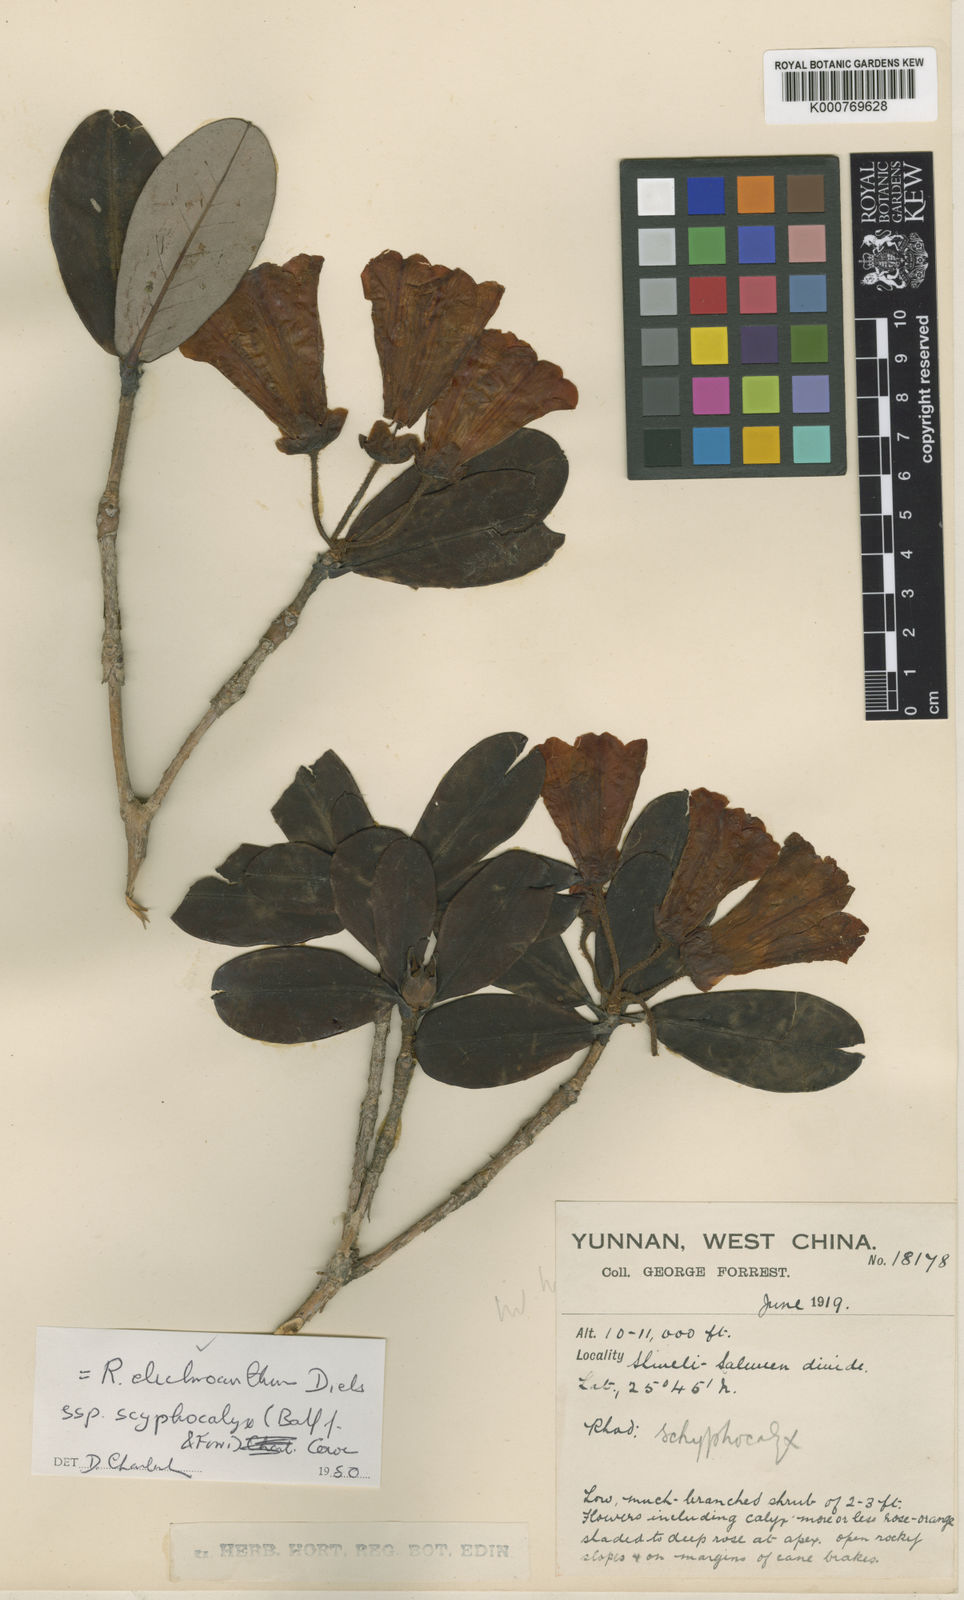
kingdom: Plantae
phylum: Tracheophyta
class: Magnoliopsida
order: Ericales
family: Ericaceae
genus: Rhododendron
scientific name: Rhododendron microgynum
